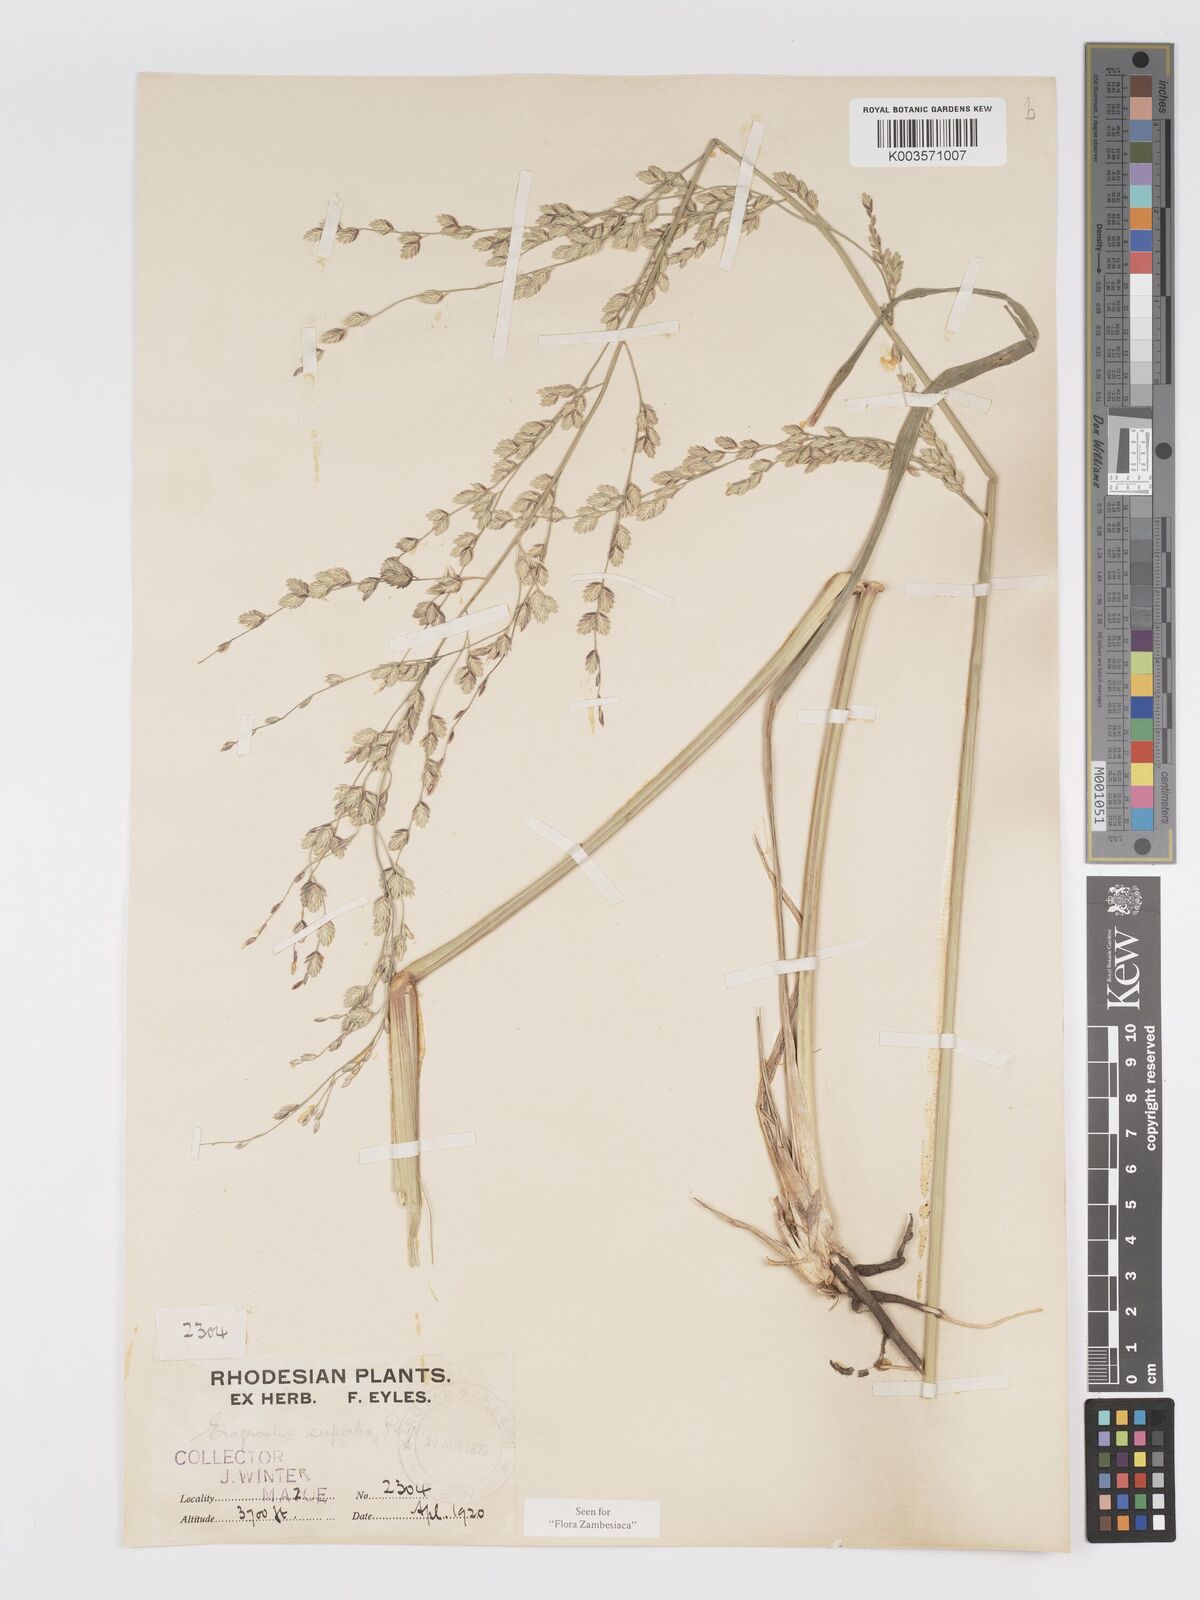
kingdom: Plantae
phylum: Tracheophyta
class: Liliopsida
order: Poales
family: Poaceae
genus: Eragrostis
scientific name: Eragrostis superba
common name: Wilman lovegrass
